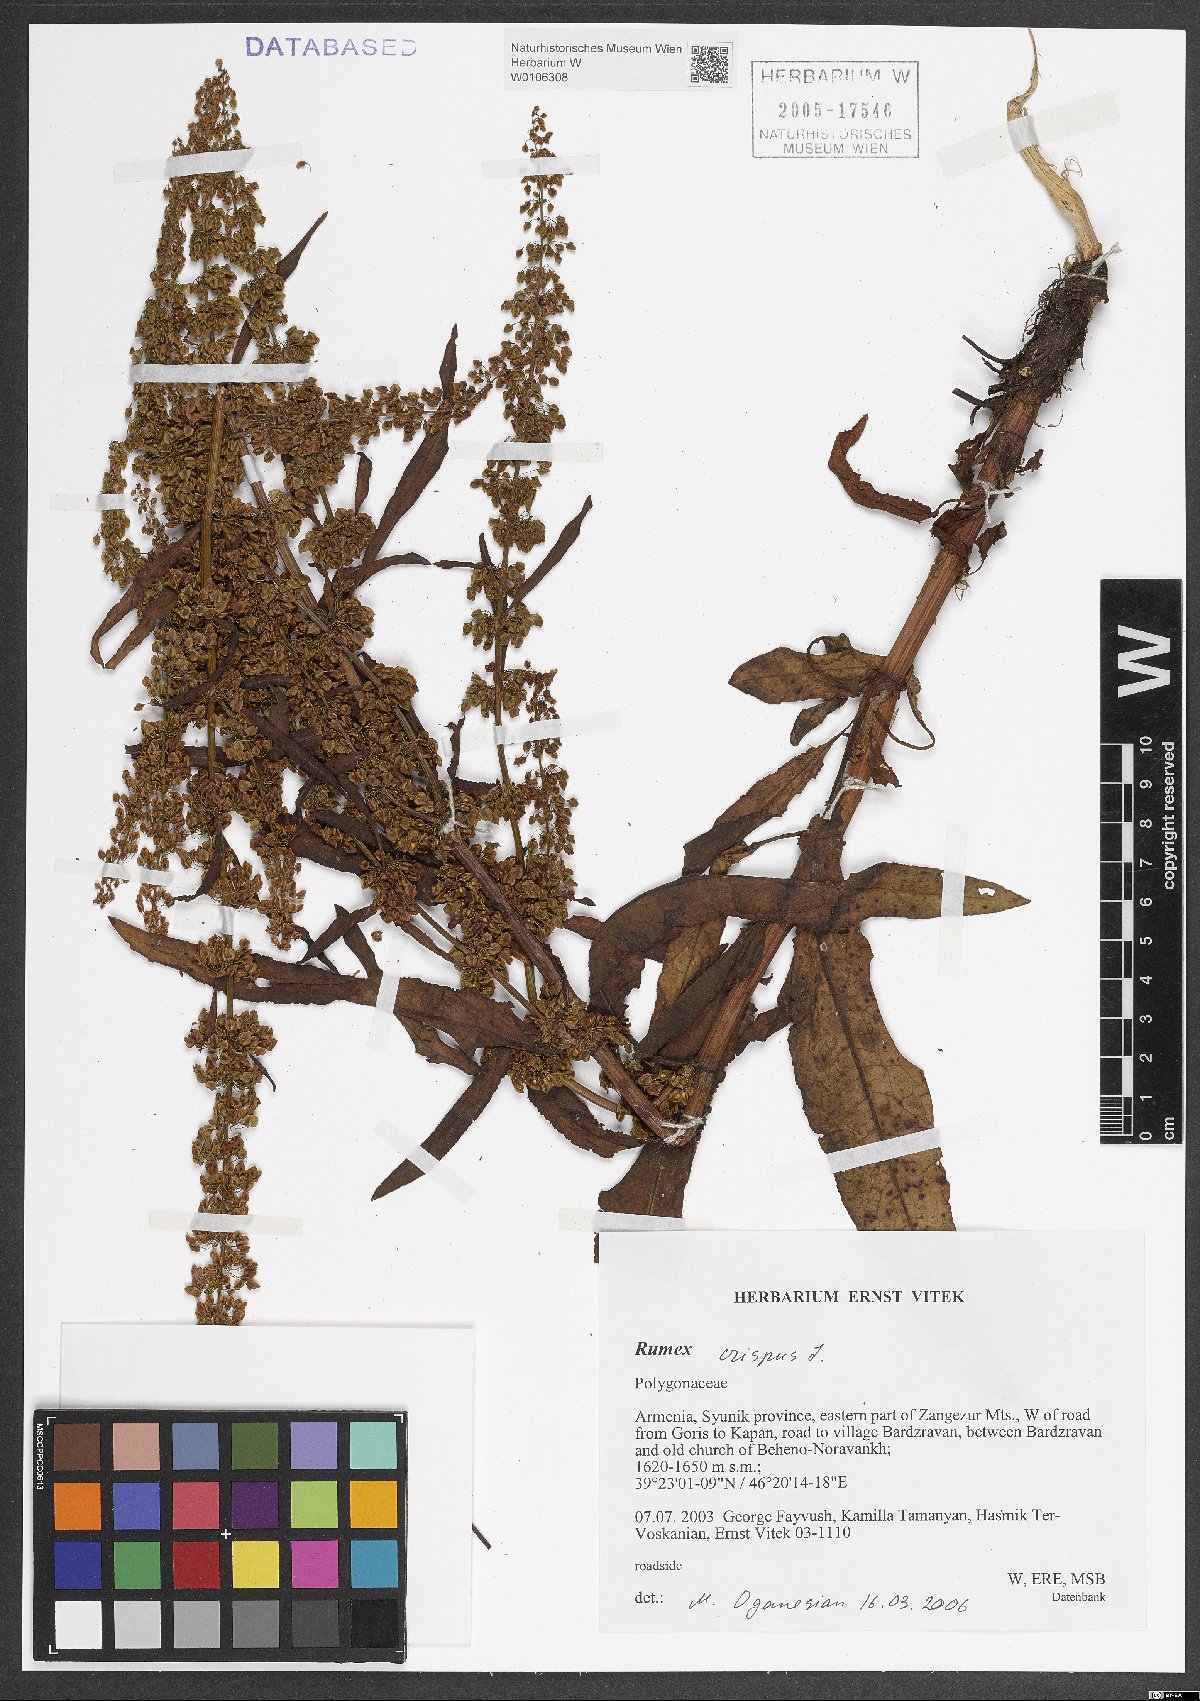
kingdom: Plantae
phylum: Tracheophyta
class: Magnoliopsida
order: Caryophyllales
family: Polygonaceae
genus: Rumex
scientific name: Rumex crispus
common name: Curled dock
